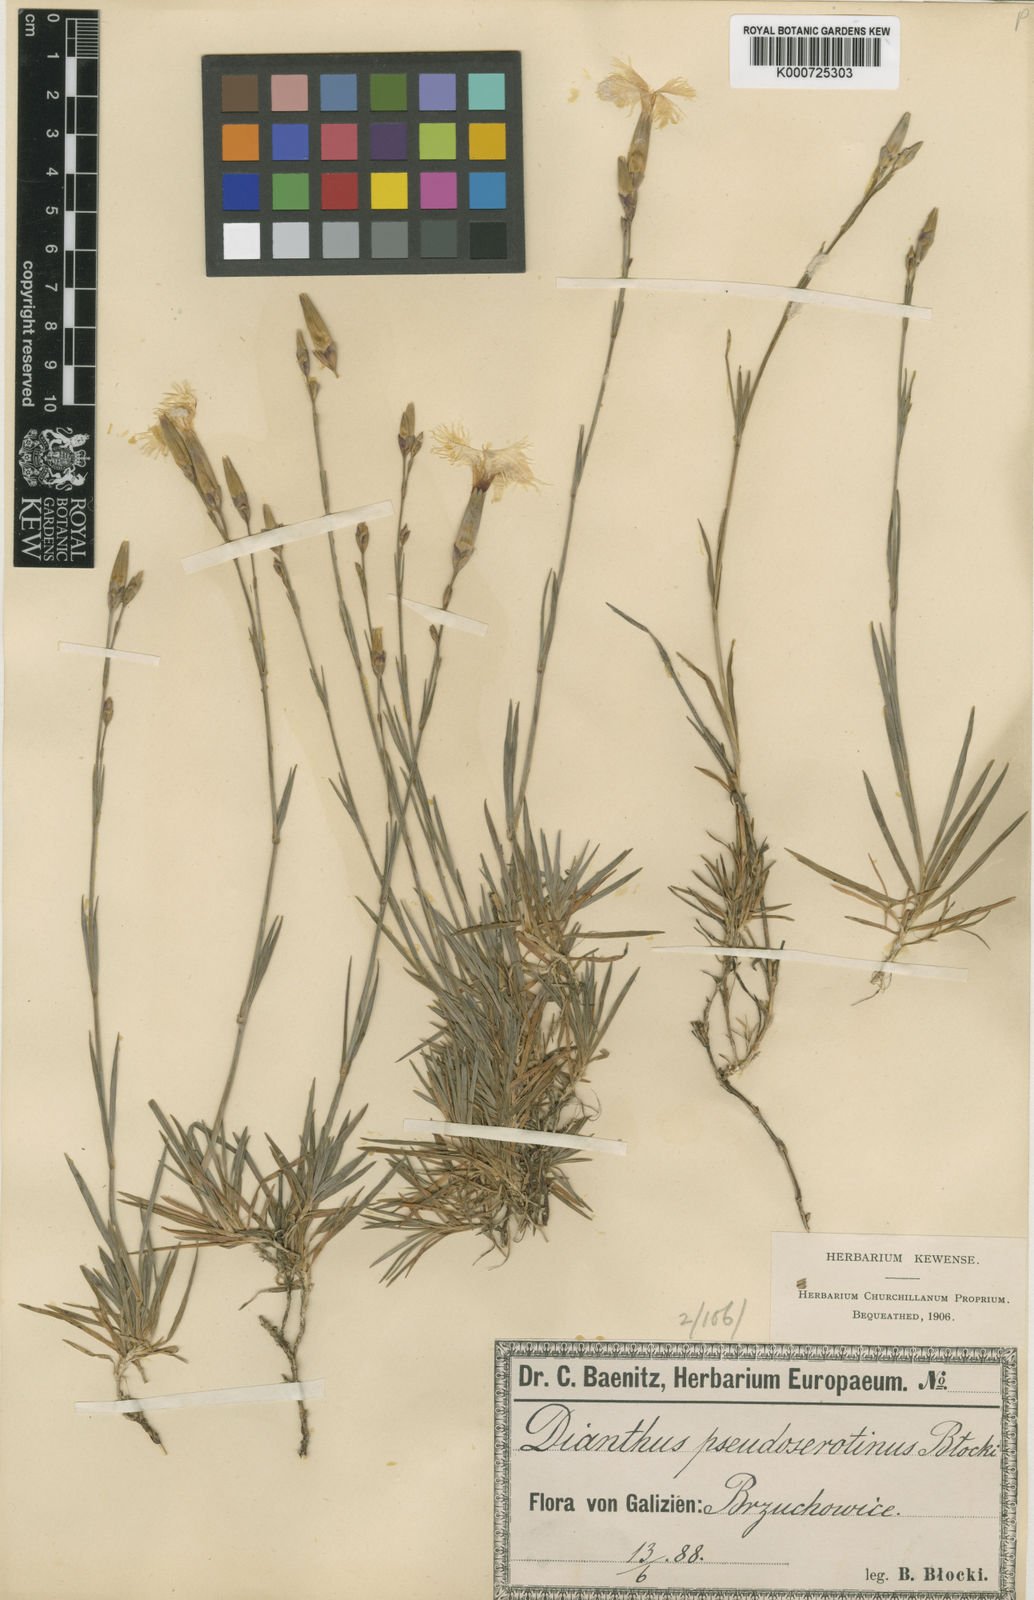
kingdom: Plantae
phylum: Tracheophyta
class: Magnoliopsida
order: Caryophyllales
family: Caryophyllaceae
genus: Dianthus
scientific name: Dianthus arenarius
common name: Stone pink
